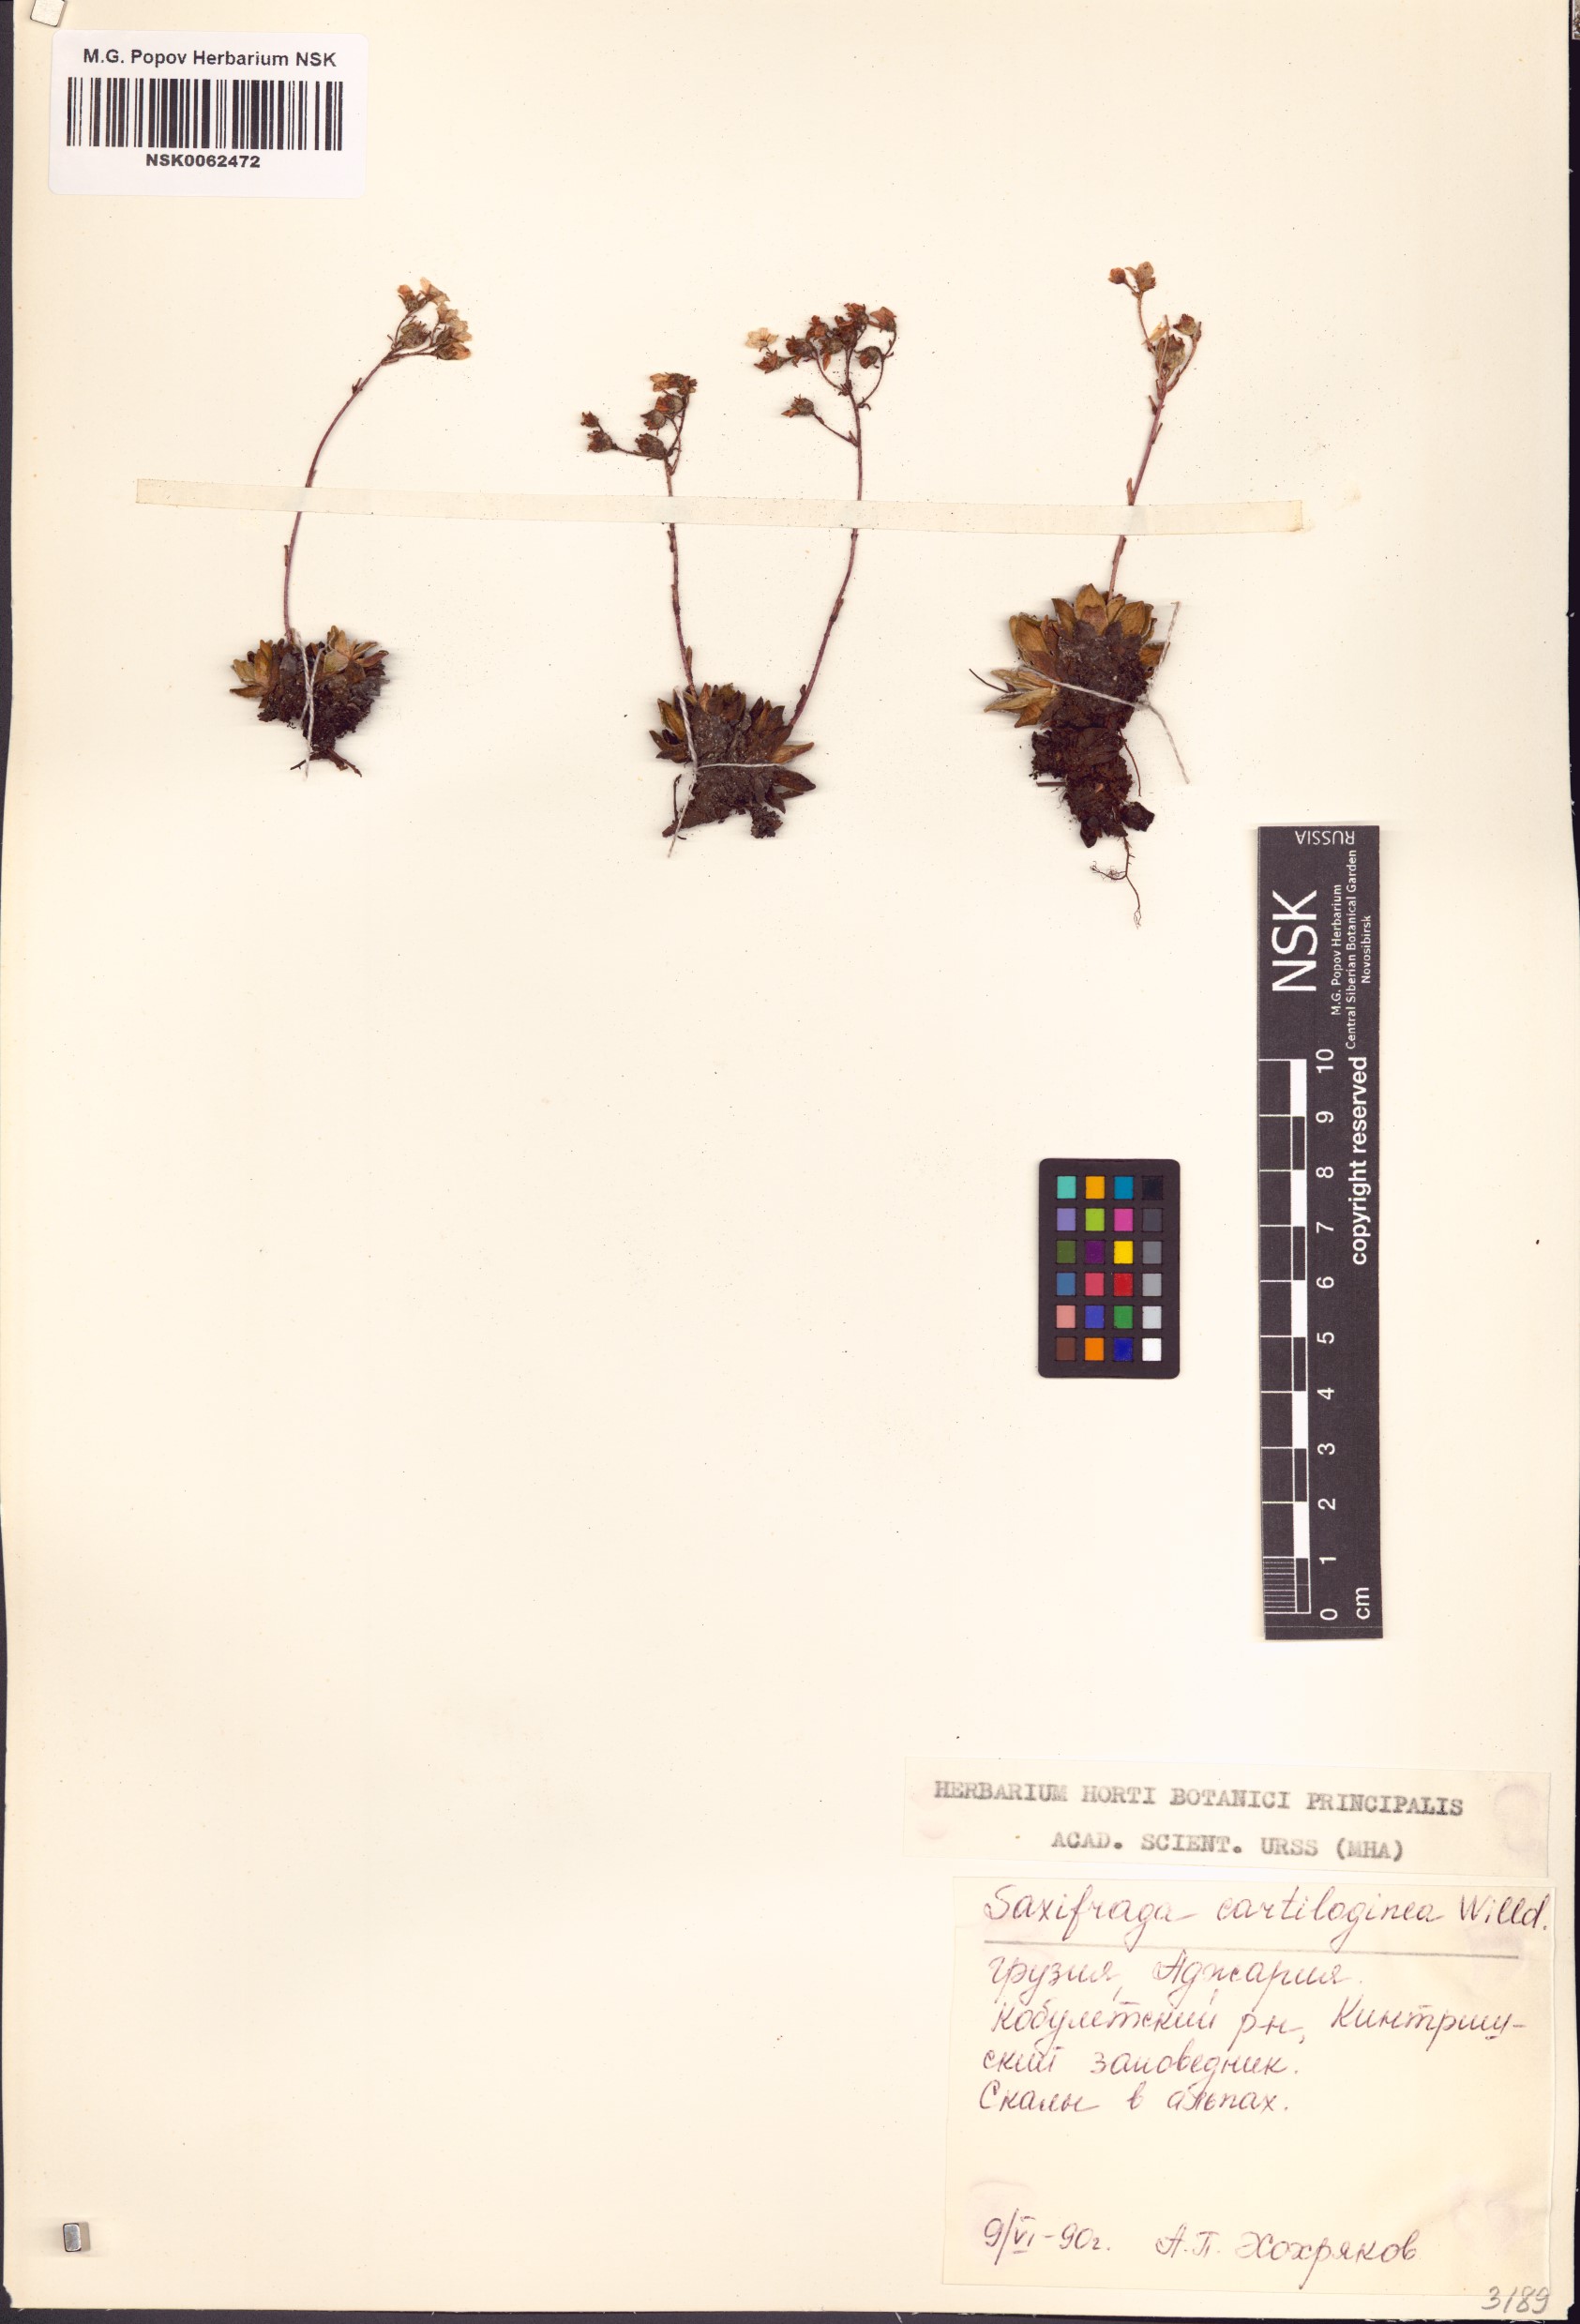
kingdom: Plantae
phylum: Tracheophyta
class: Magnoliopsida
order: Saxifragales
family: Saxifragaceae
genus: Saxifraga
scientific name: Saxifraga paniculata
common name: Livelong saxifrage
